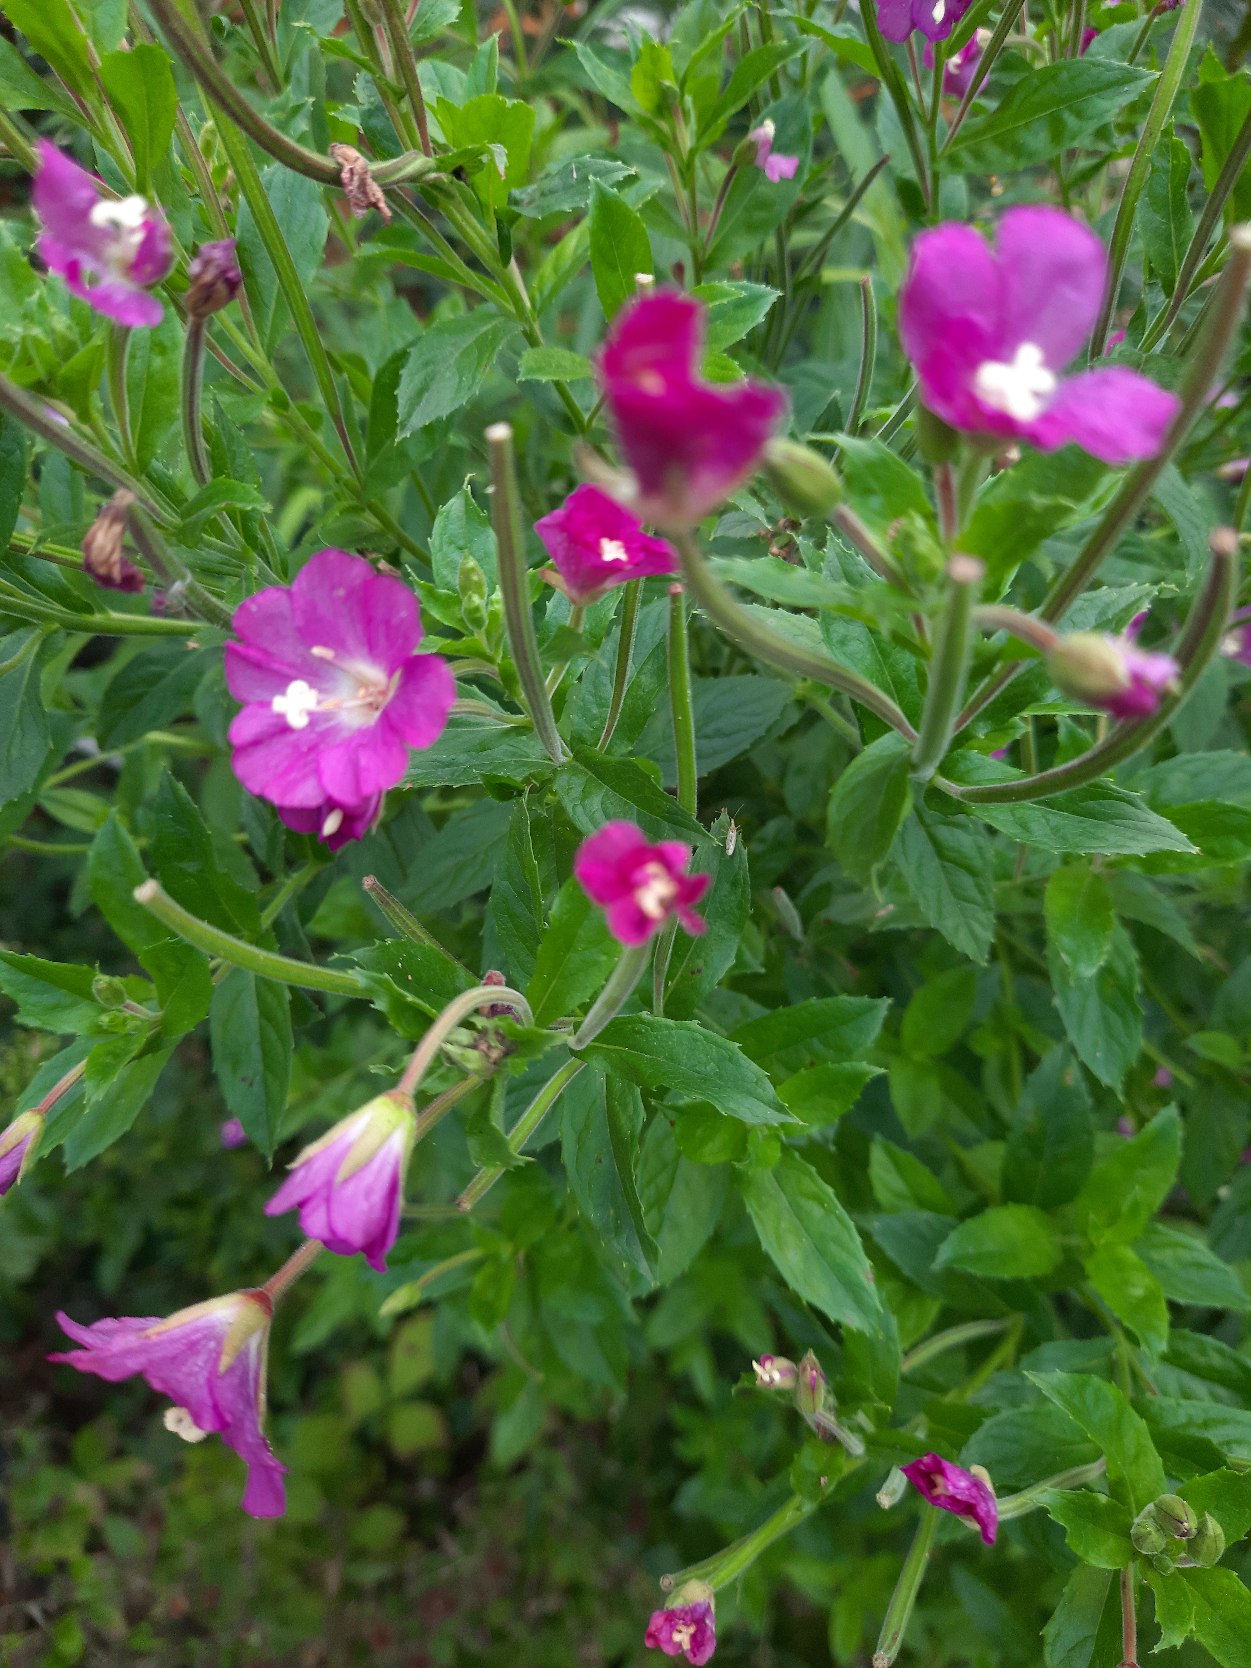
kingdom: Plantae
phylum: Tracheophyta
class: Magnoliopsida
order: Myrtales
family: Onagraceae
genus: Epilobium
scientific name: Epilobium hirsutum
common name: Lådden dueurt
